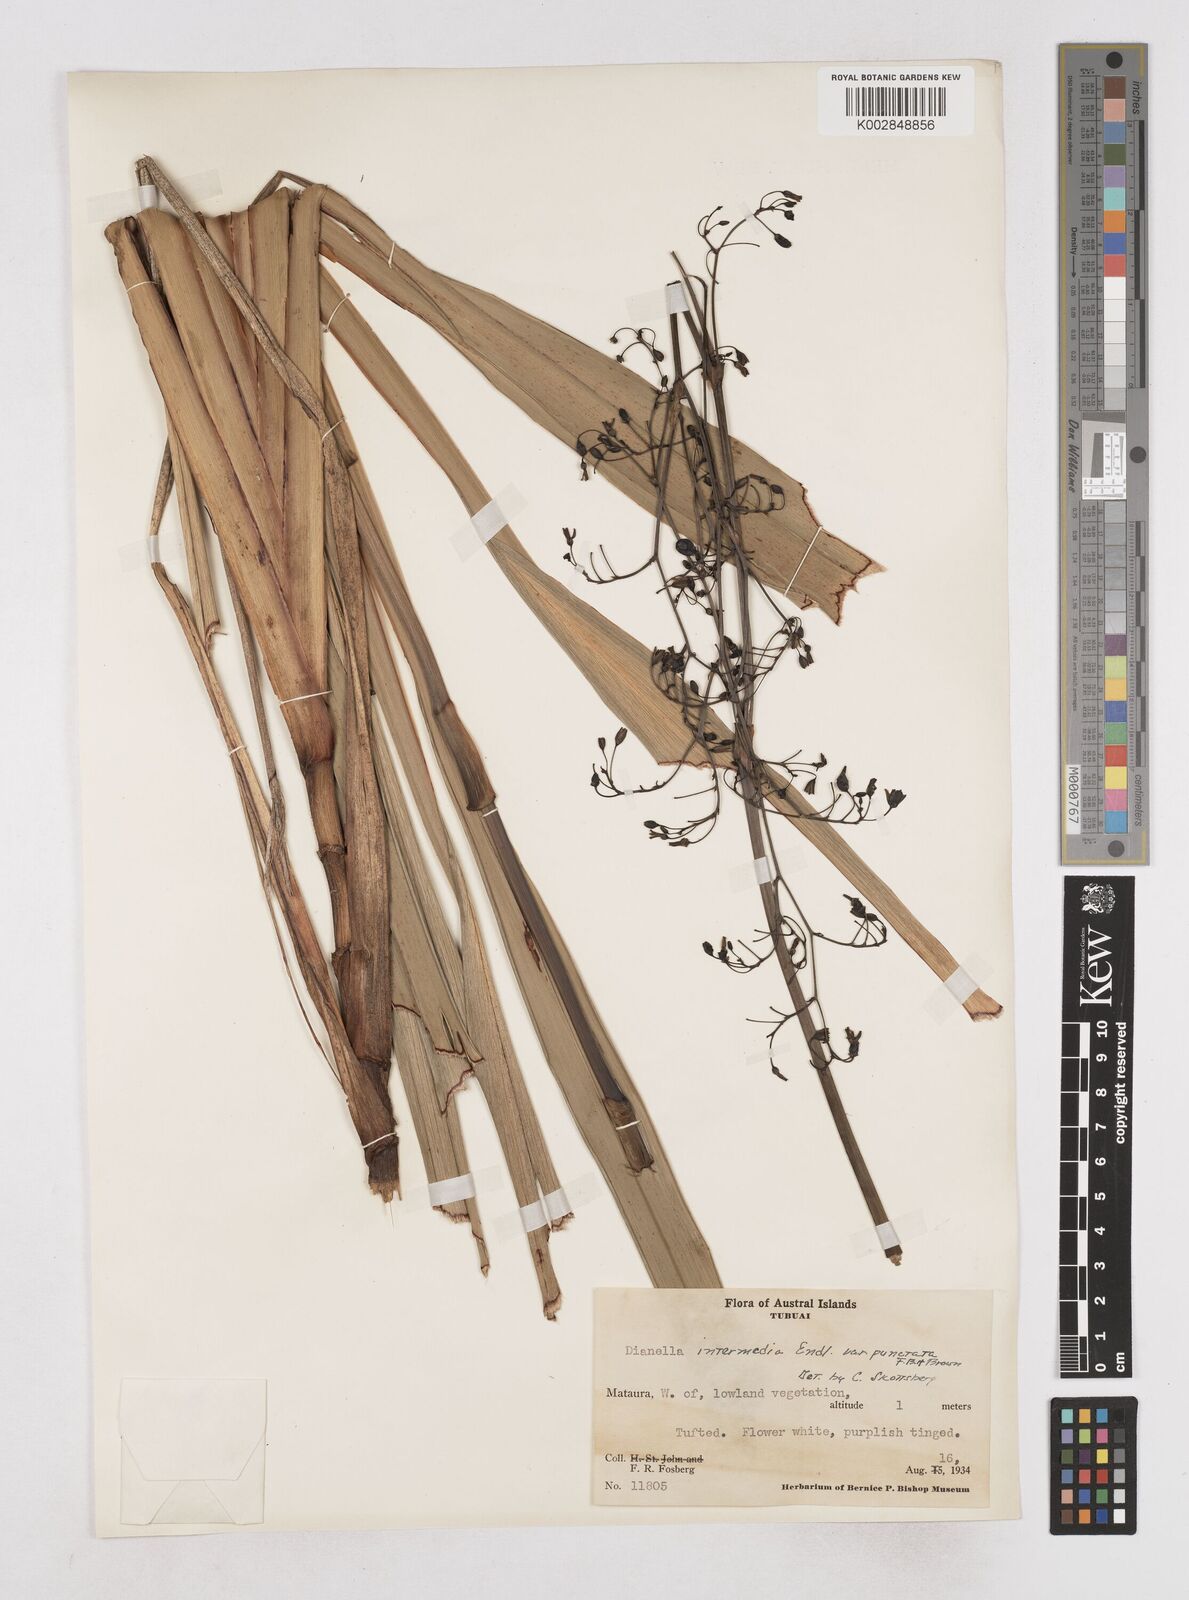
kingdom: Plantae
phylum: Tracheophyta
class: Liliopsida
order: Asparagales
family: Asphodelaceae
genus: Dianella
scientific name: Dianella intermedia
